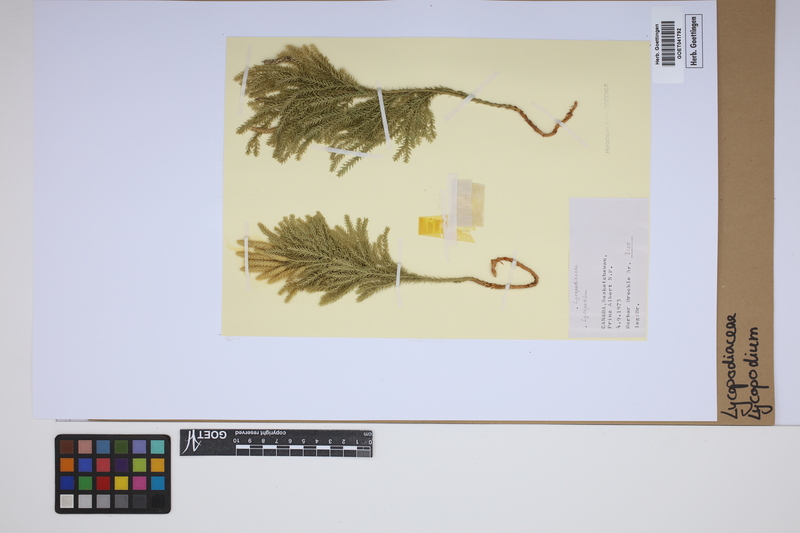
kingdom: Plantae
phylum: Tracheophyta
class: Lycopodiopsida
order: Lycopodiales
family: Lycopodiaceae
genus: Lycopodium
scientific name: Lycopodium
